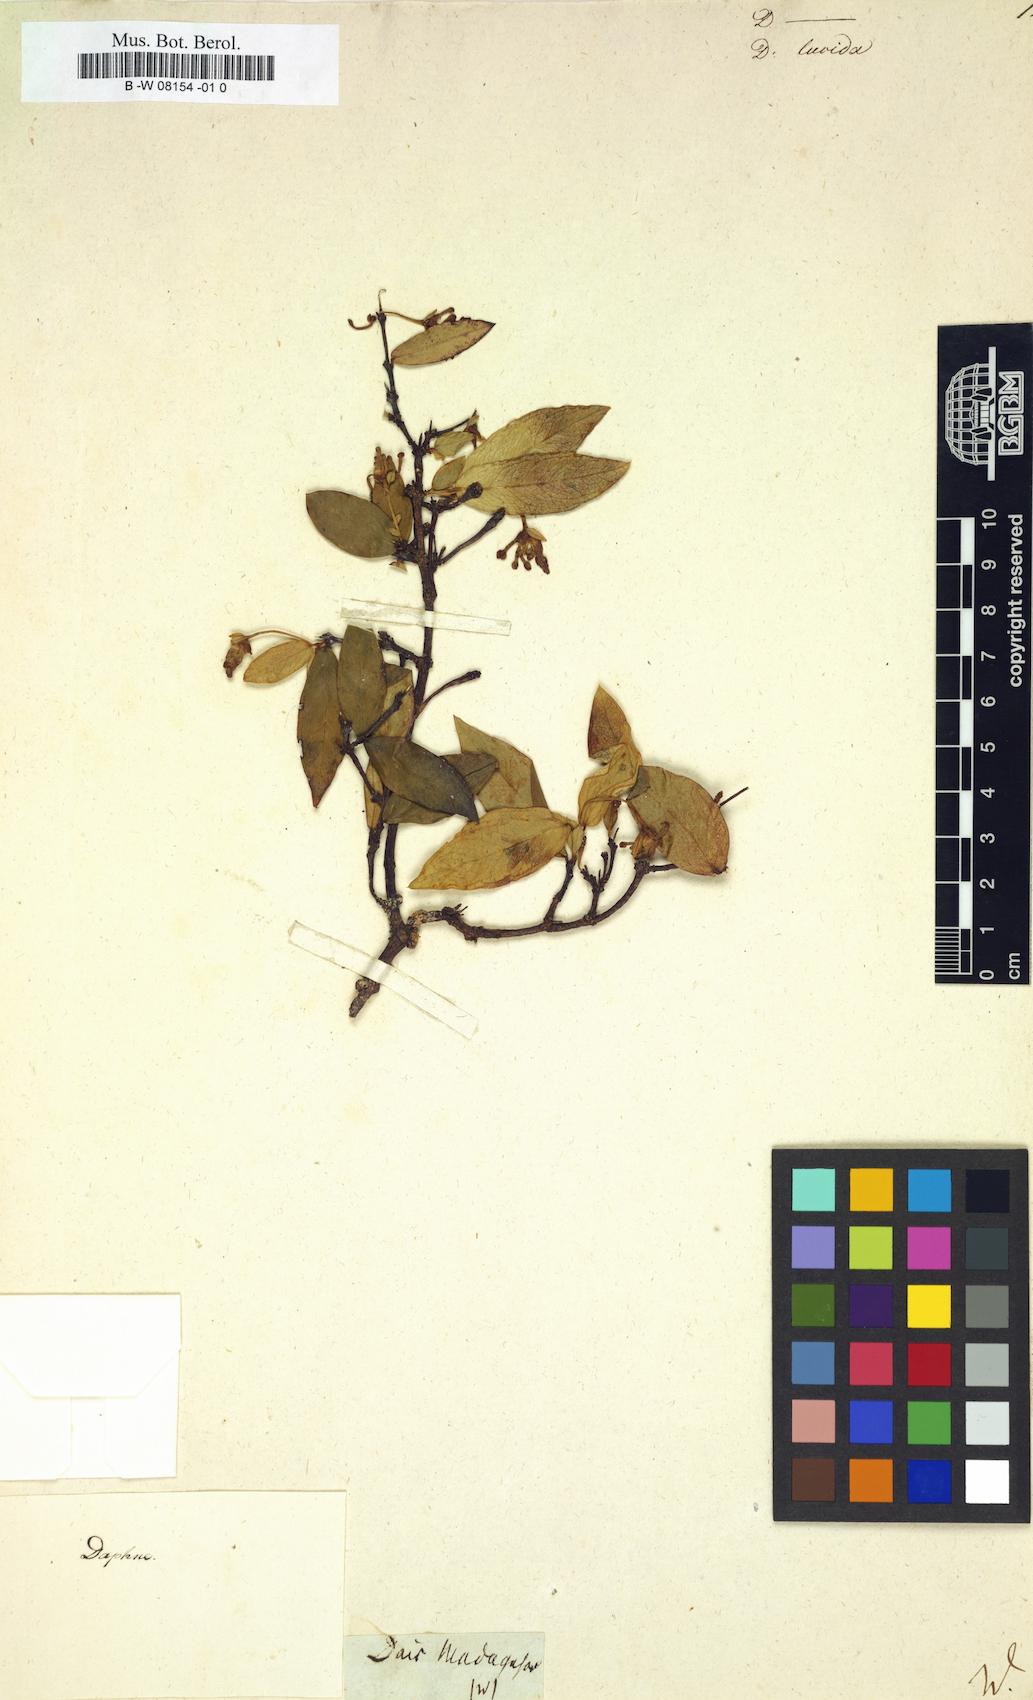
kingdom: Plantae
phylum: Tracheophyta
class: Magnoliopsida
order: Malvales
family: Thymelaeaceae
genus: Dais
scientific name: Dais
